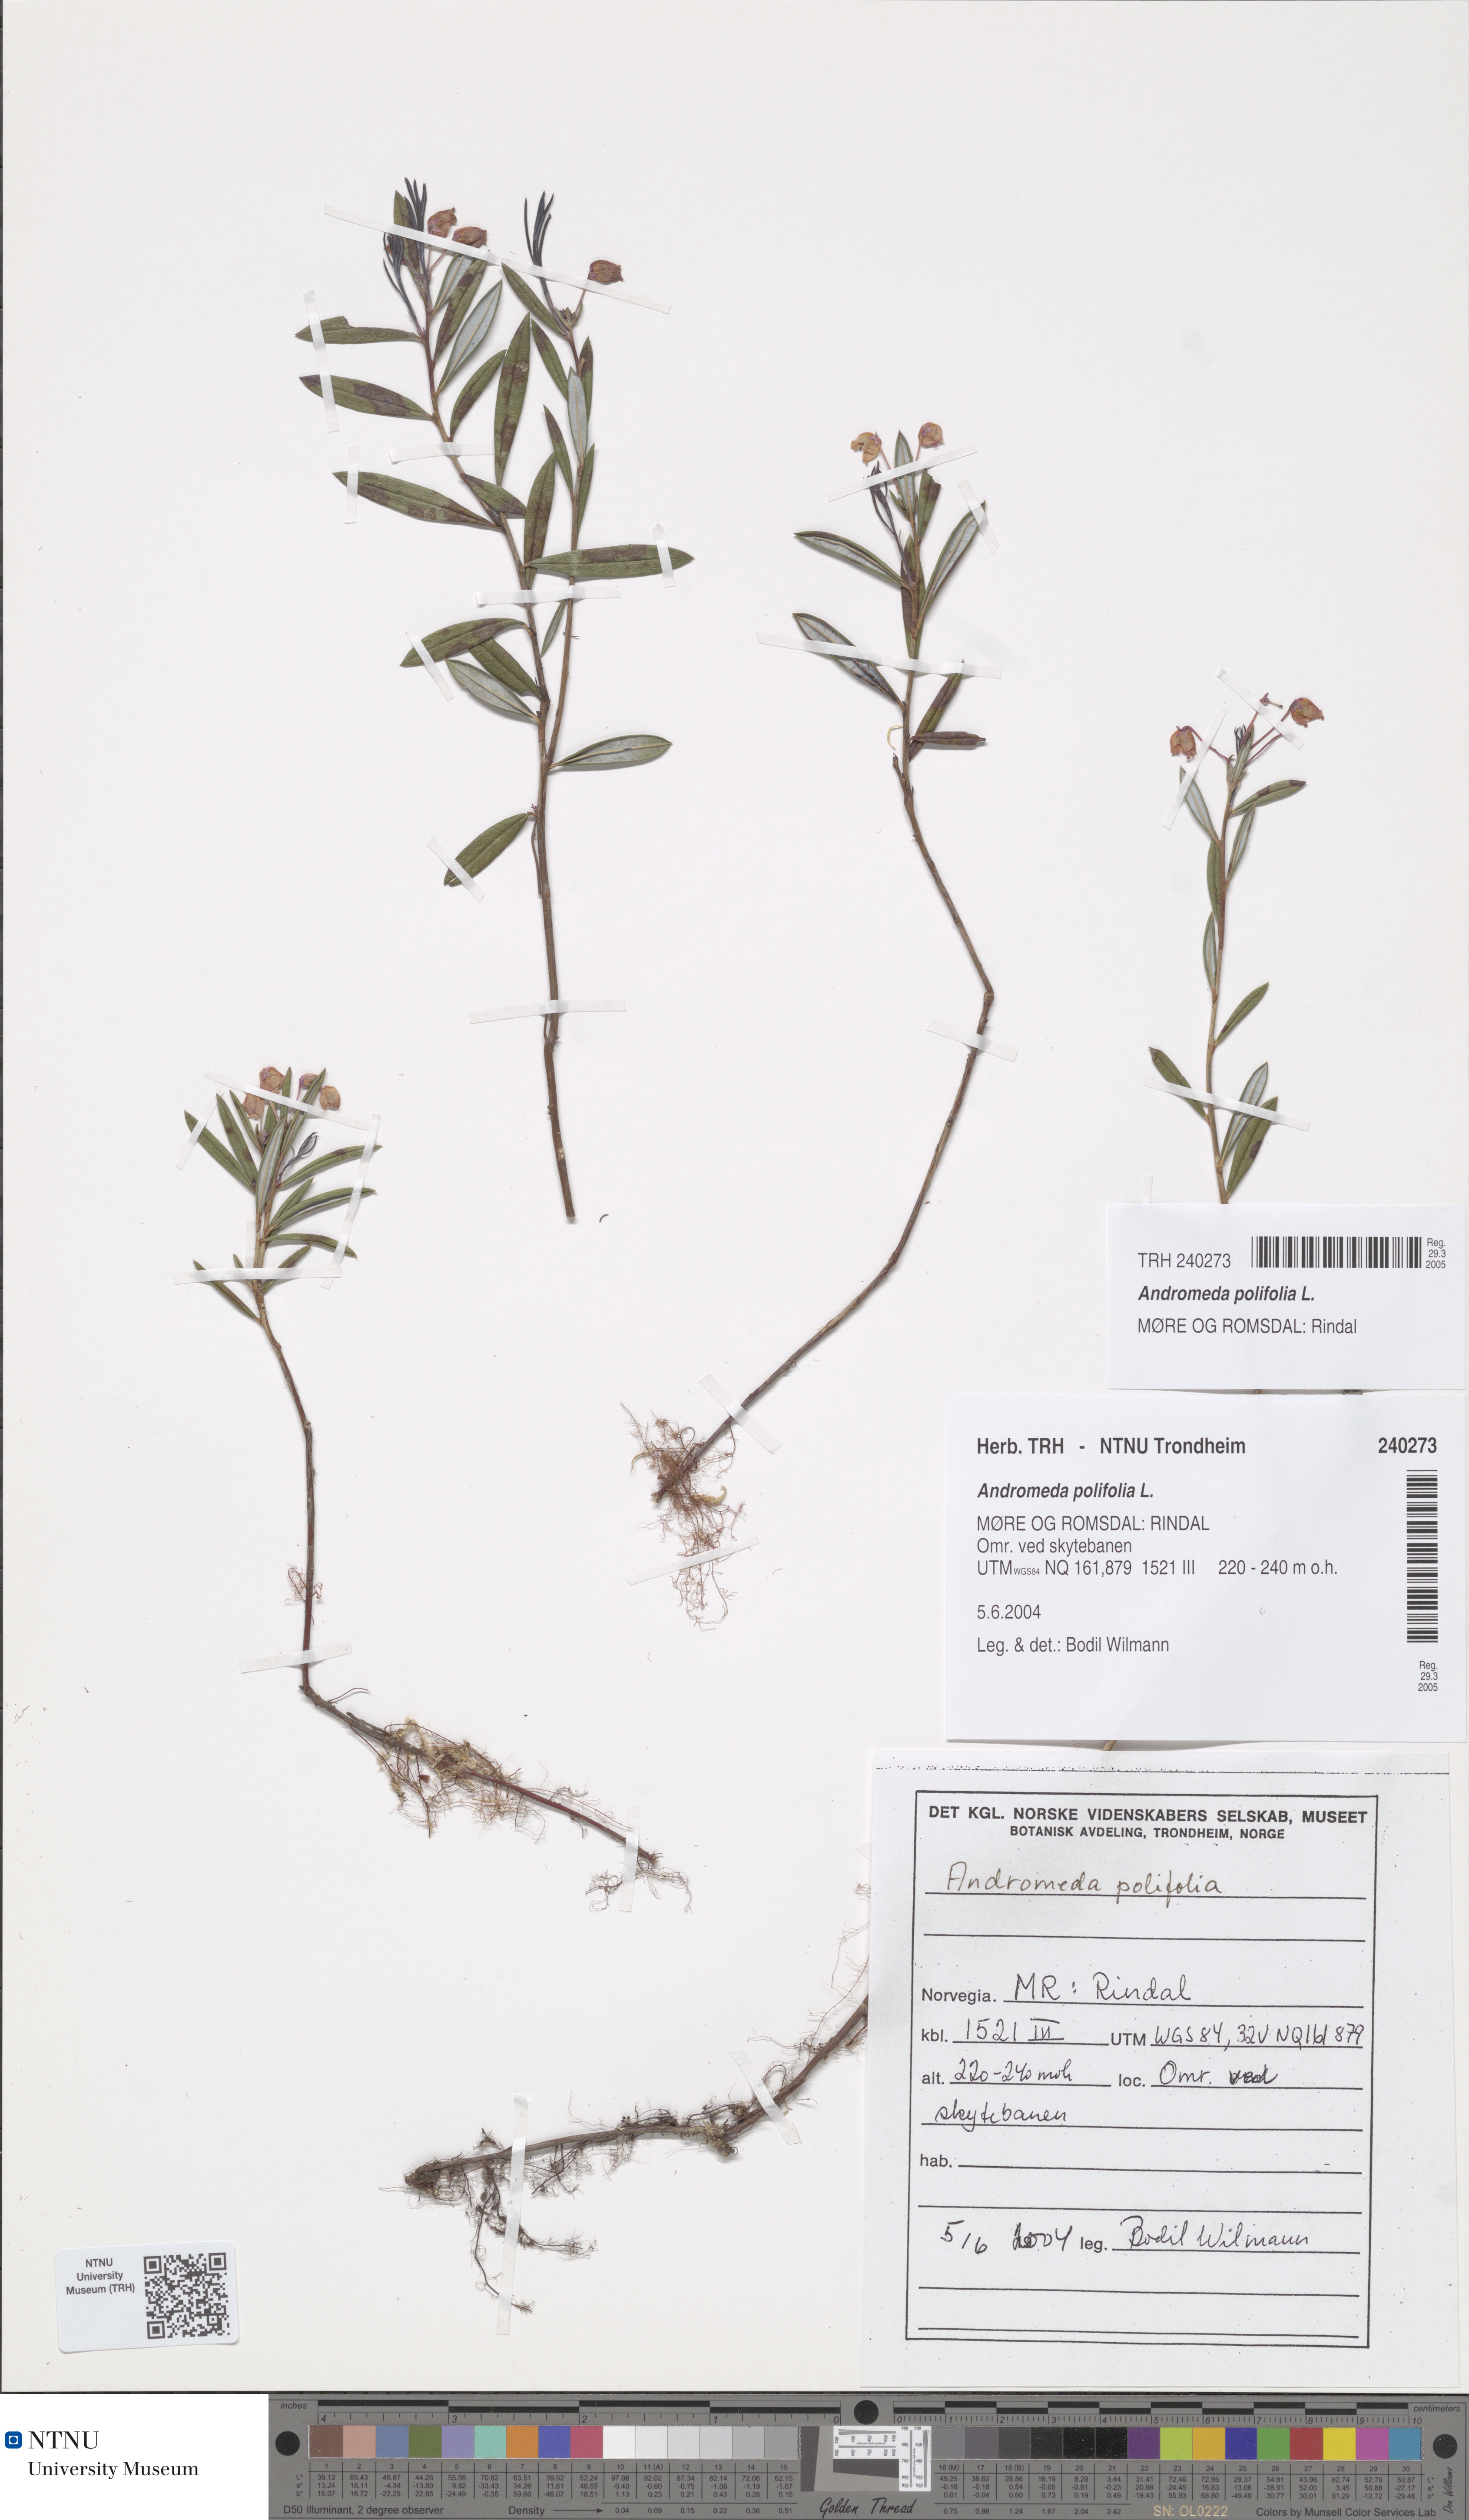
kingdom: Plantae
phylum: Tracheophyta
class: Magnoliopsida
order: Ericales
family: Ericaceae
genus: Andromeda
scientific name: Andromeda polifolia
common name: Bog-rosemary
